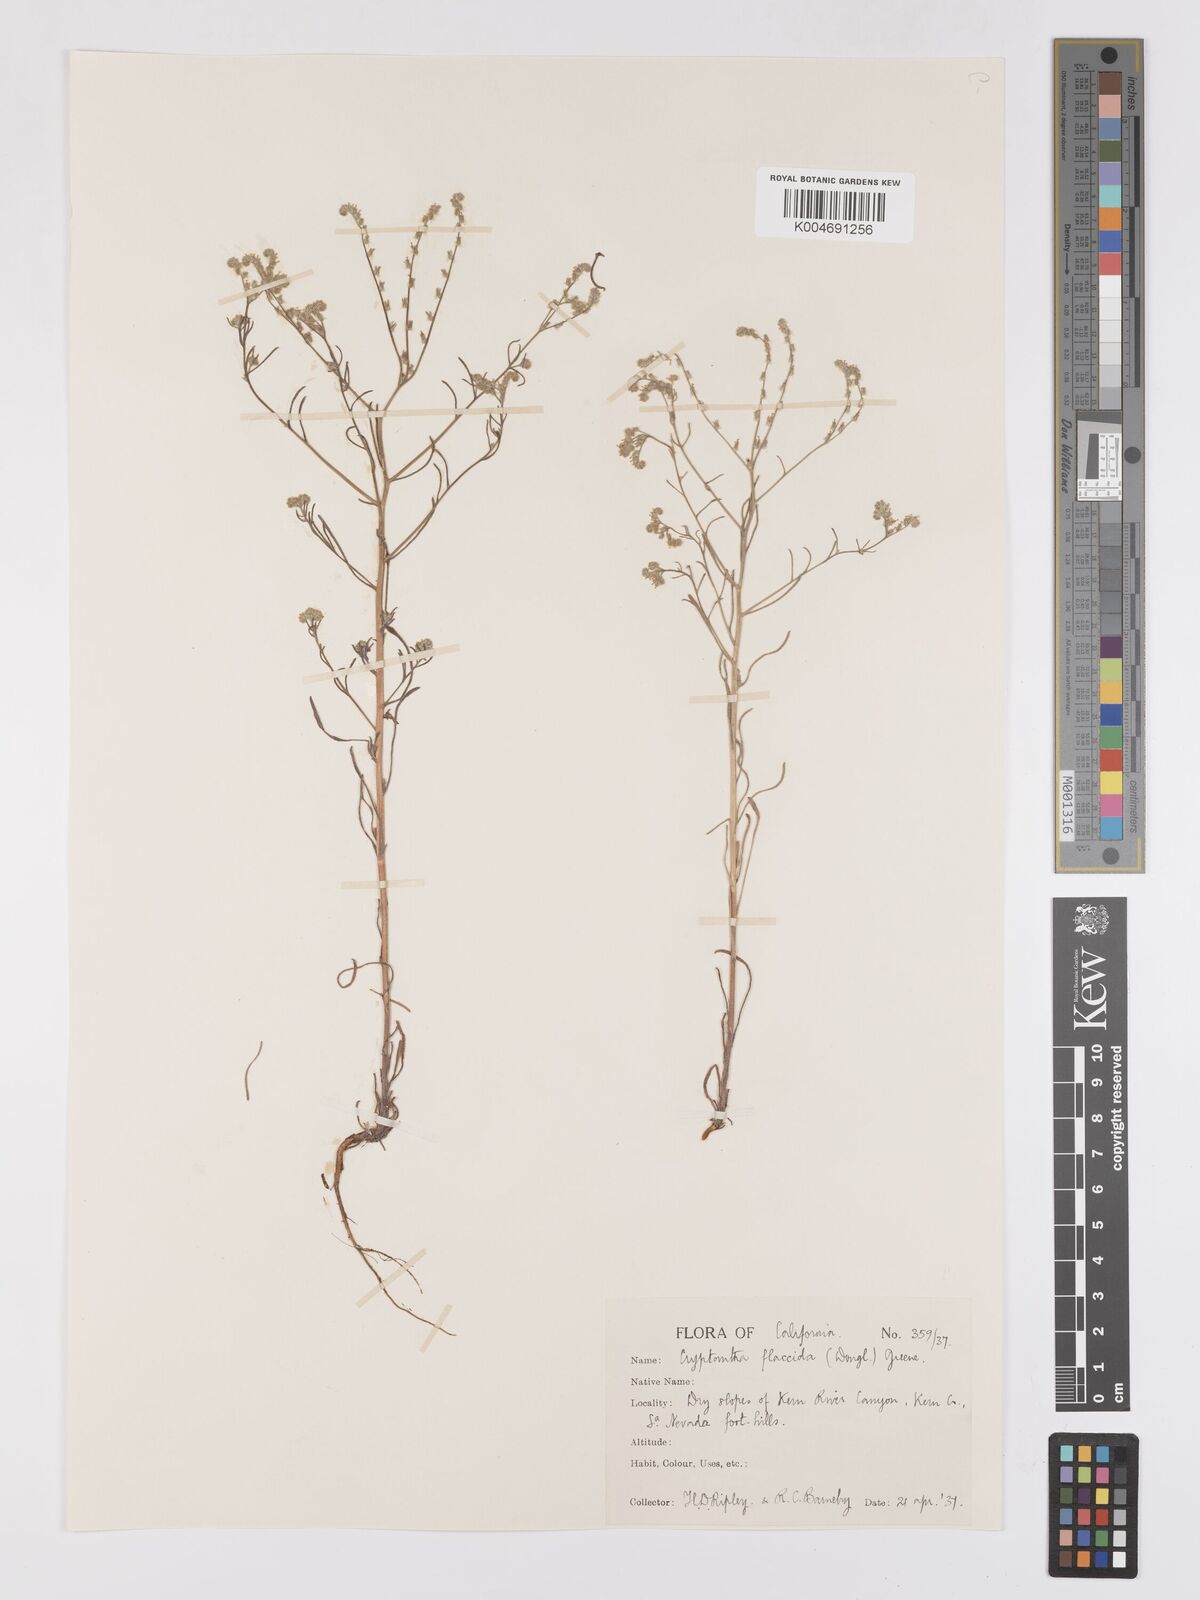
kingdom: Plantae
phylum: Tracheophyta
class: Magnoliopsida
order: Boraginales
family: Boraginaceae
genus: Cryptantha
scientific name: Cryptantha flaccida
